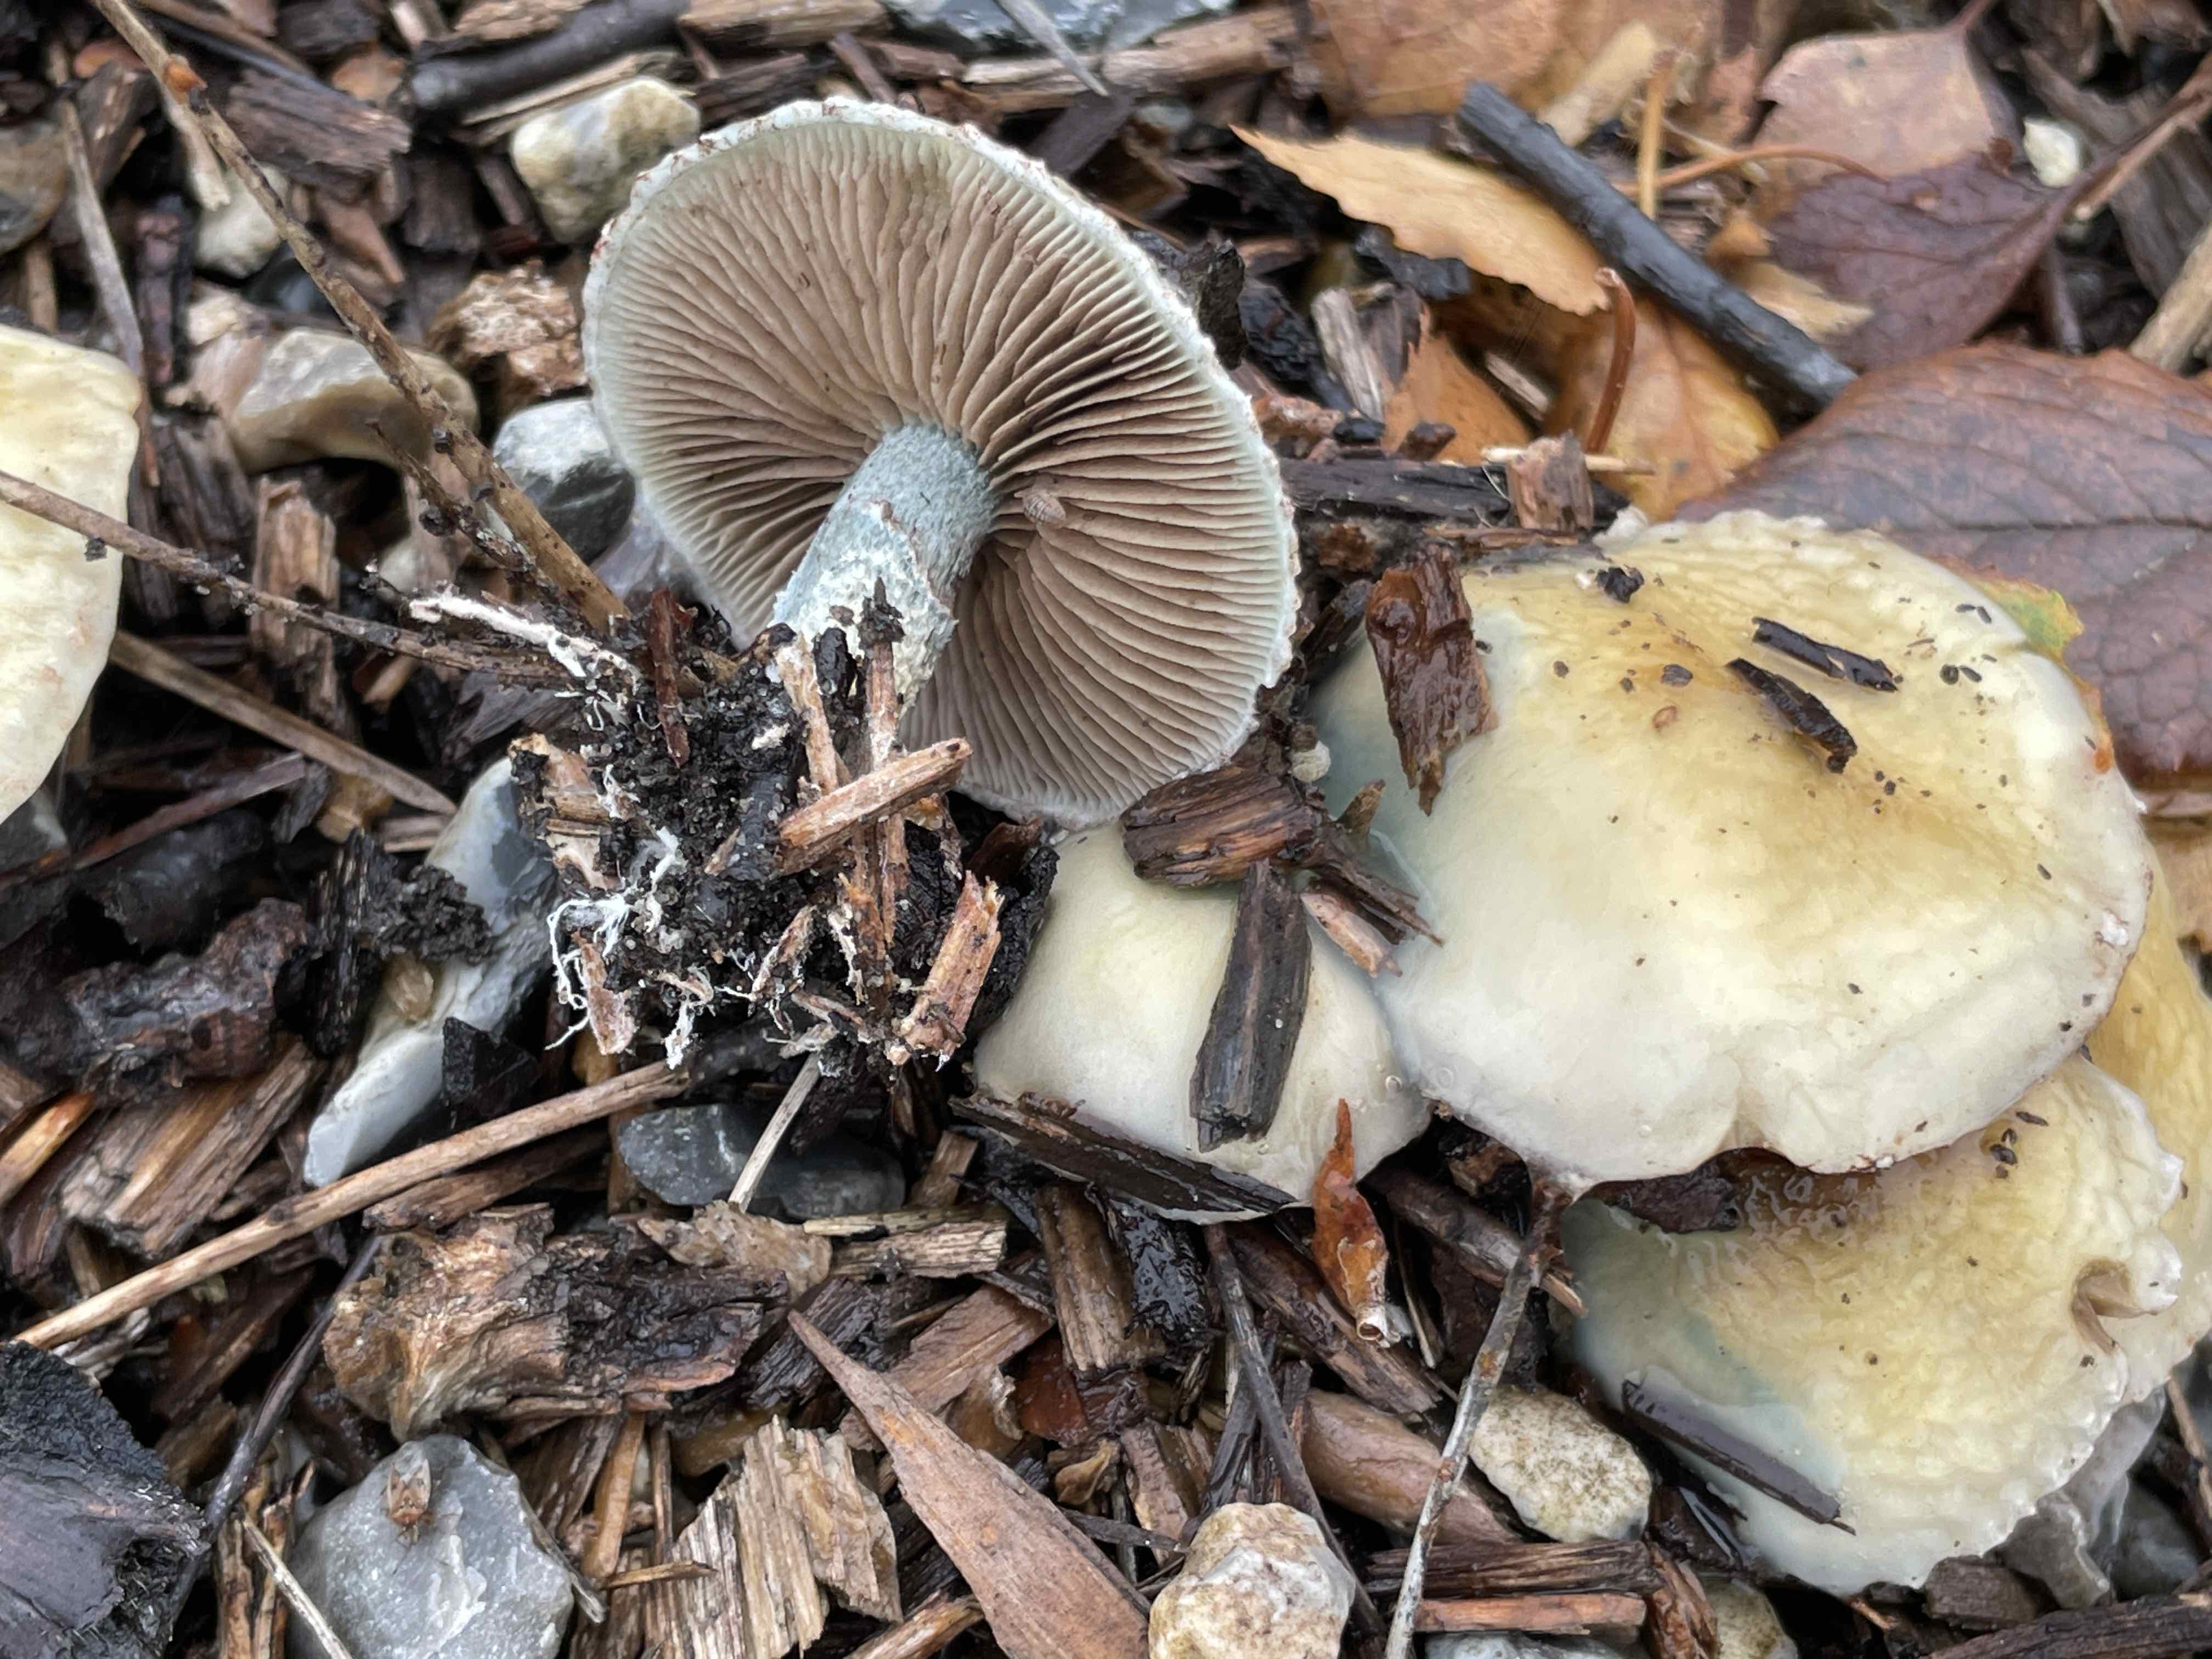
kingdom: Fungi
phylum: Basidiomycota
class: Agaricomycetes
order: Agaricales
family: Strophariaceae
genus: Stropharia
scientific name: Stropharia cyanea
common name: blågrøn bredblad
